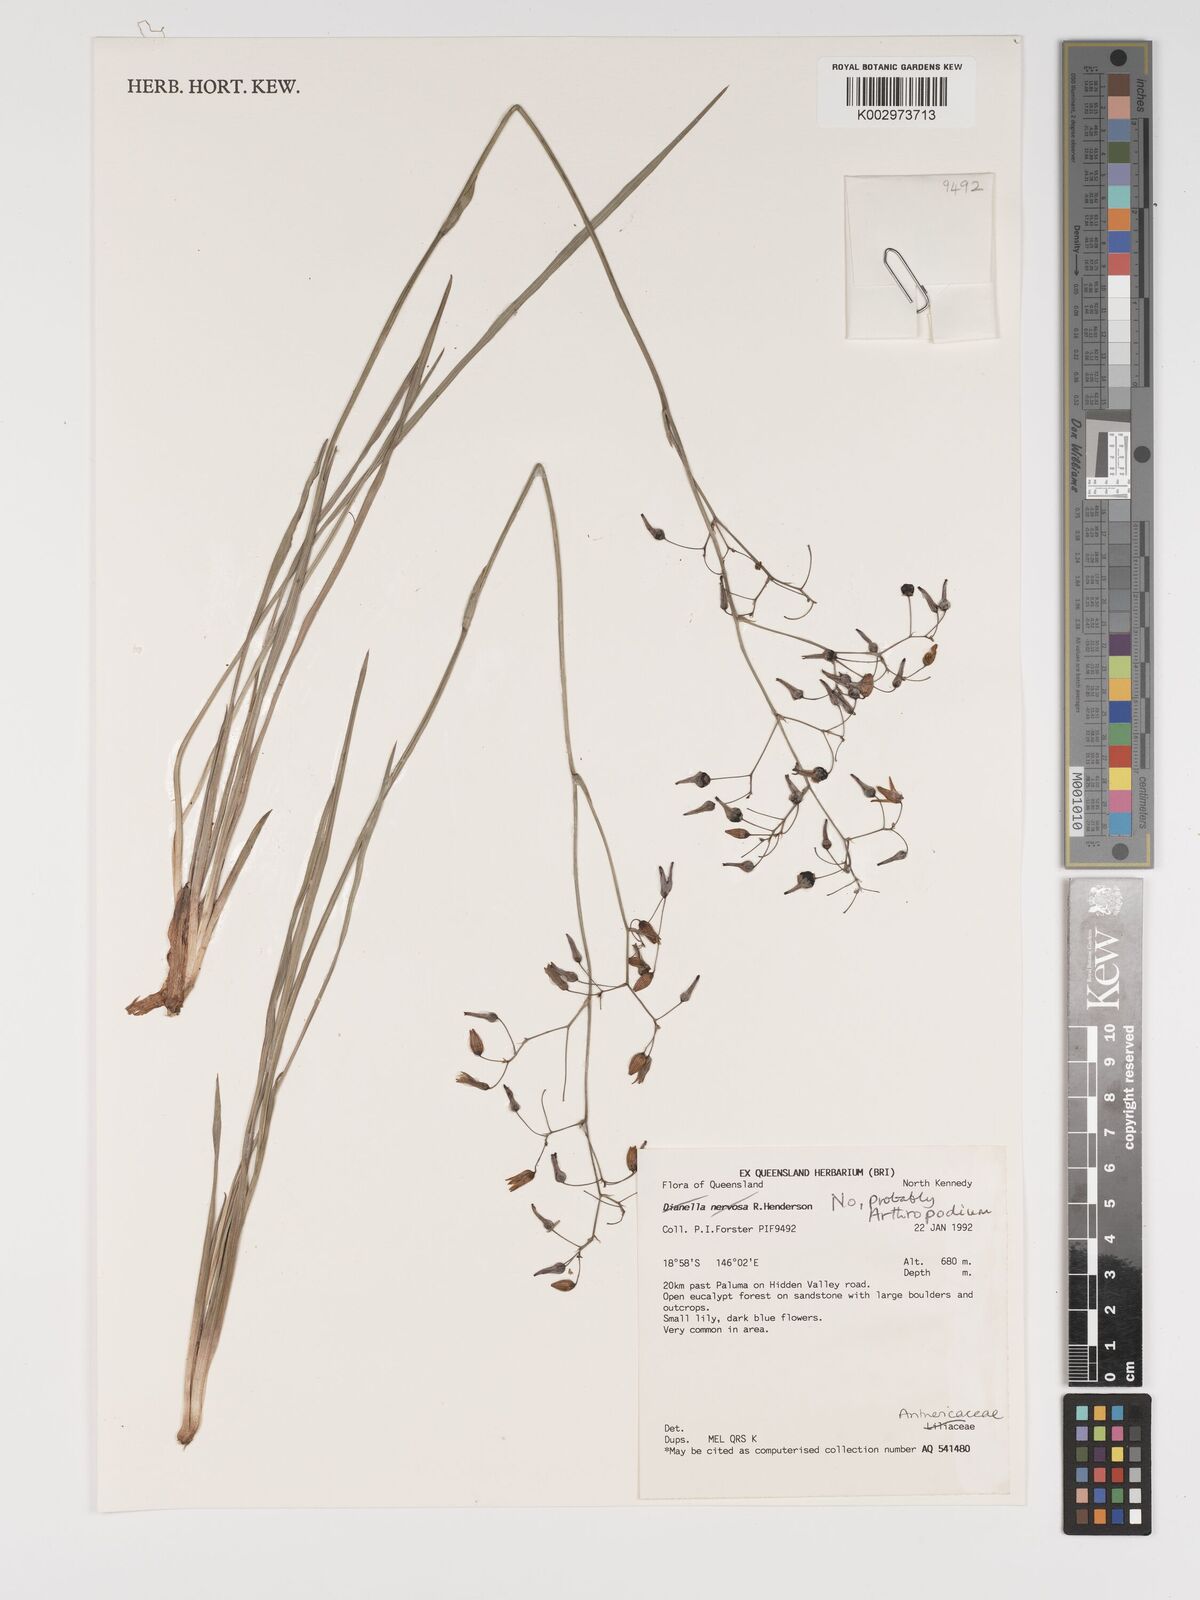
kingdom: Plantae
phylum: Tracheophyta
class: Liliopsida
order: Asparagales
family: Asparagaceae
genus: Arthropodium
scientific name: Arthropodium
